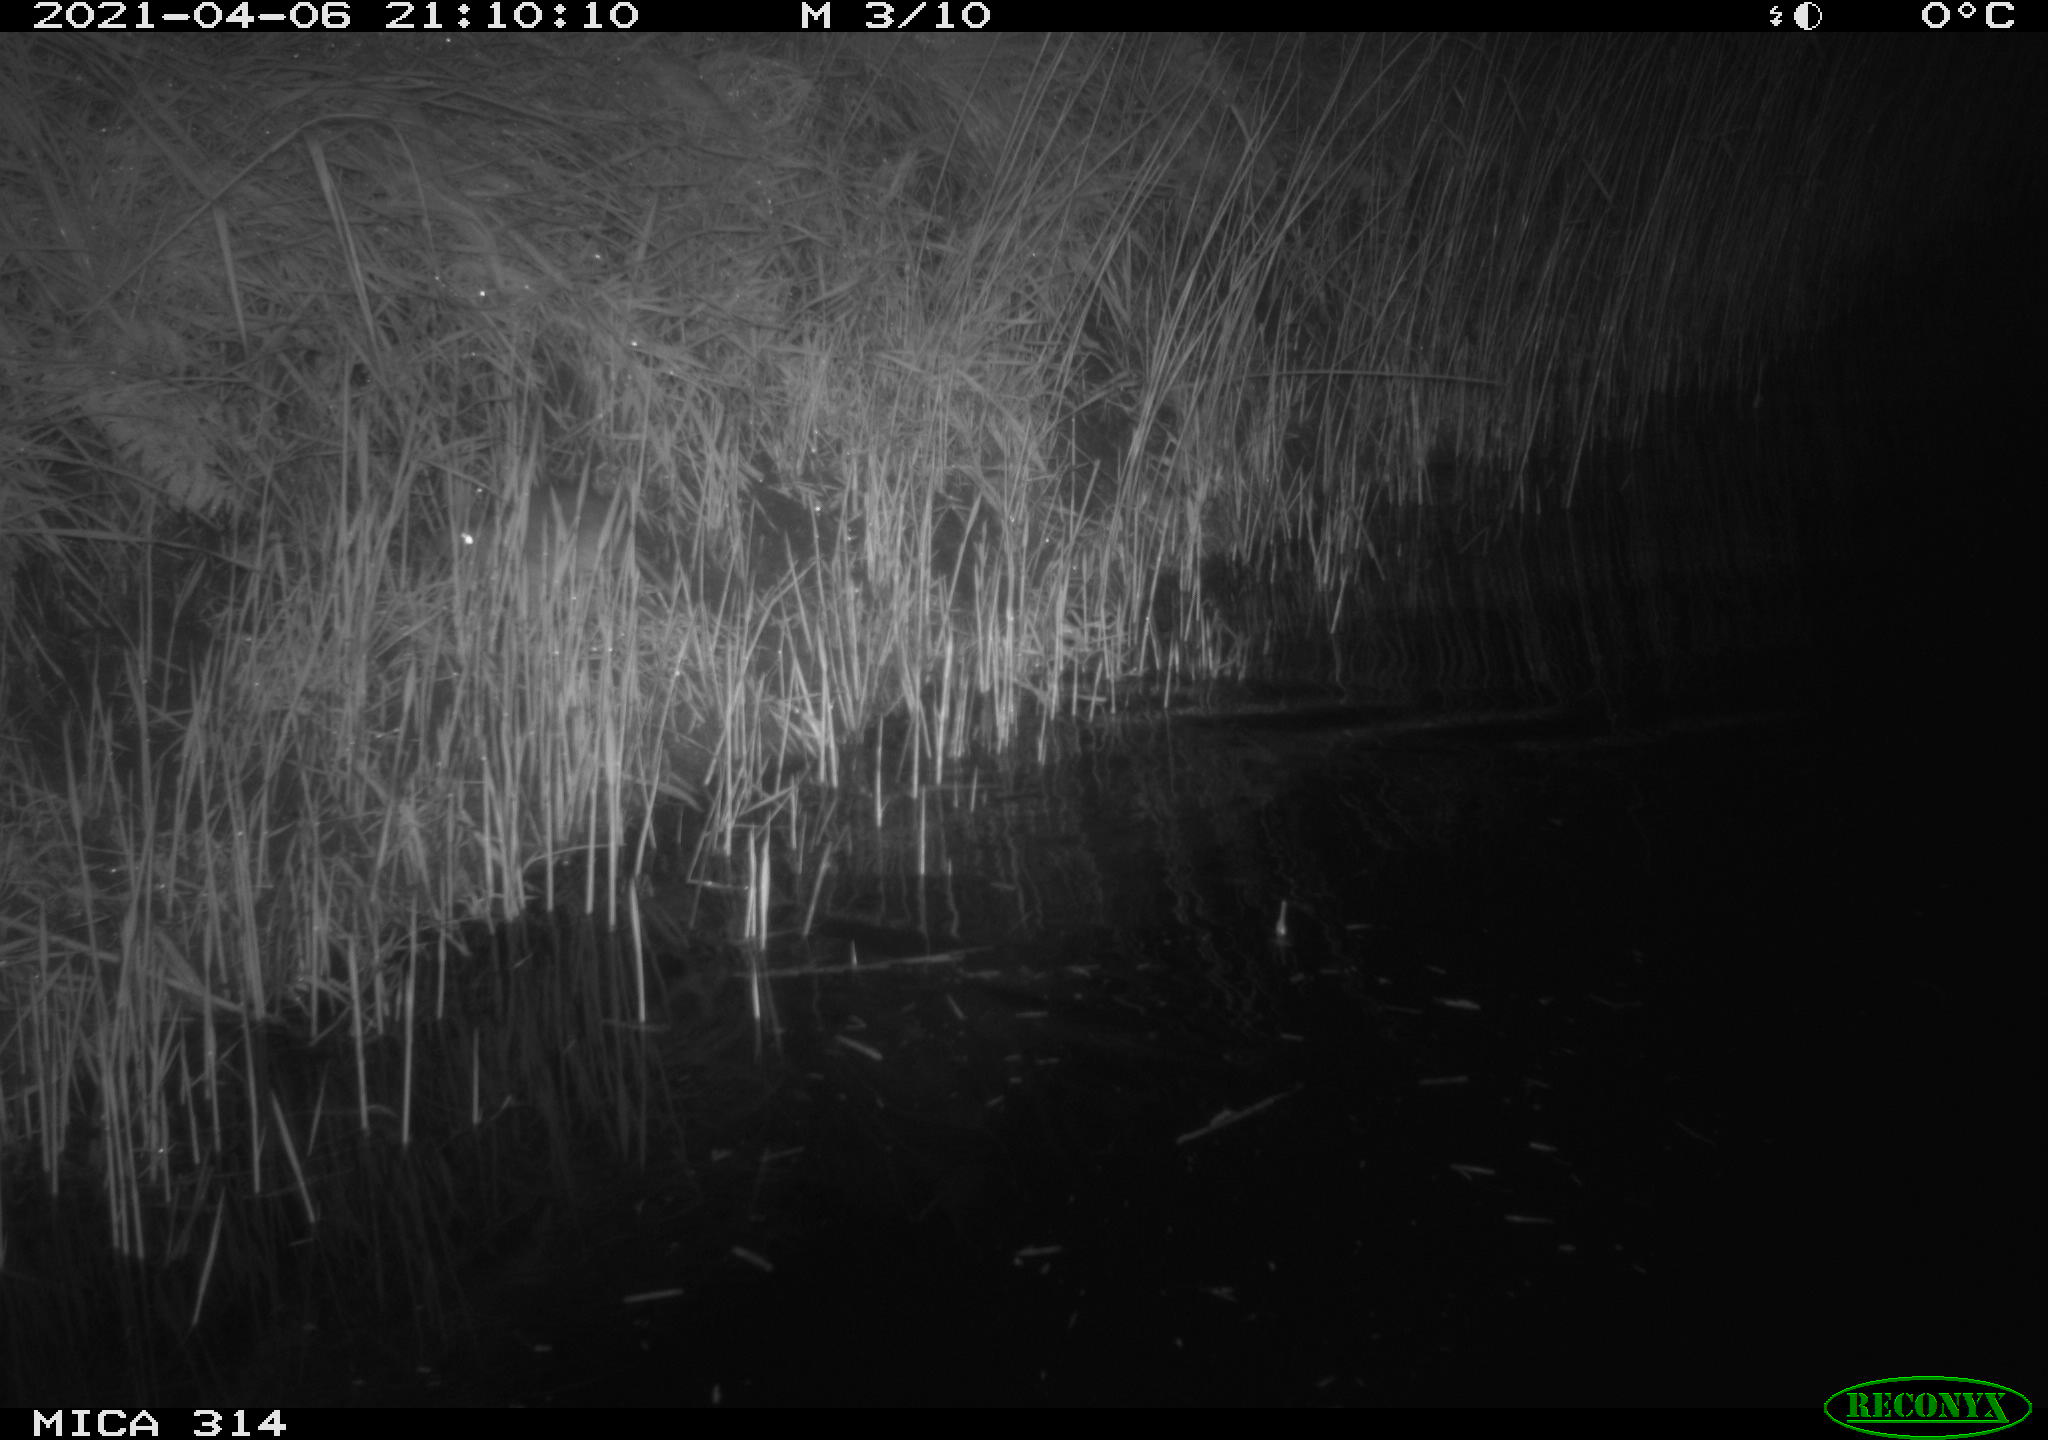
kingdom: Animalia
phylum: Chordata
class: Mammalia
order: Rodentia
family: Muridae
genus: Rattus
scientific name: Rattus norvegicus
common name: Brown rat
